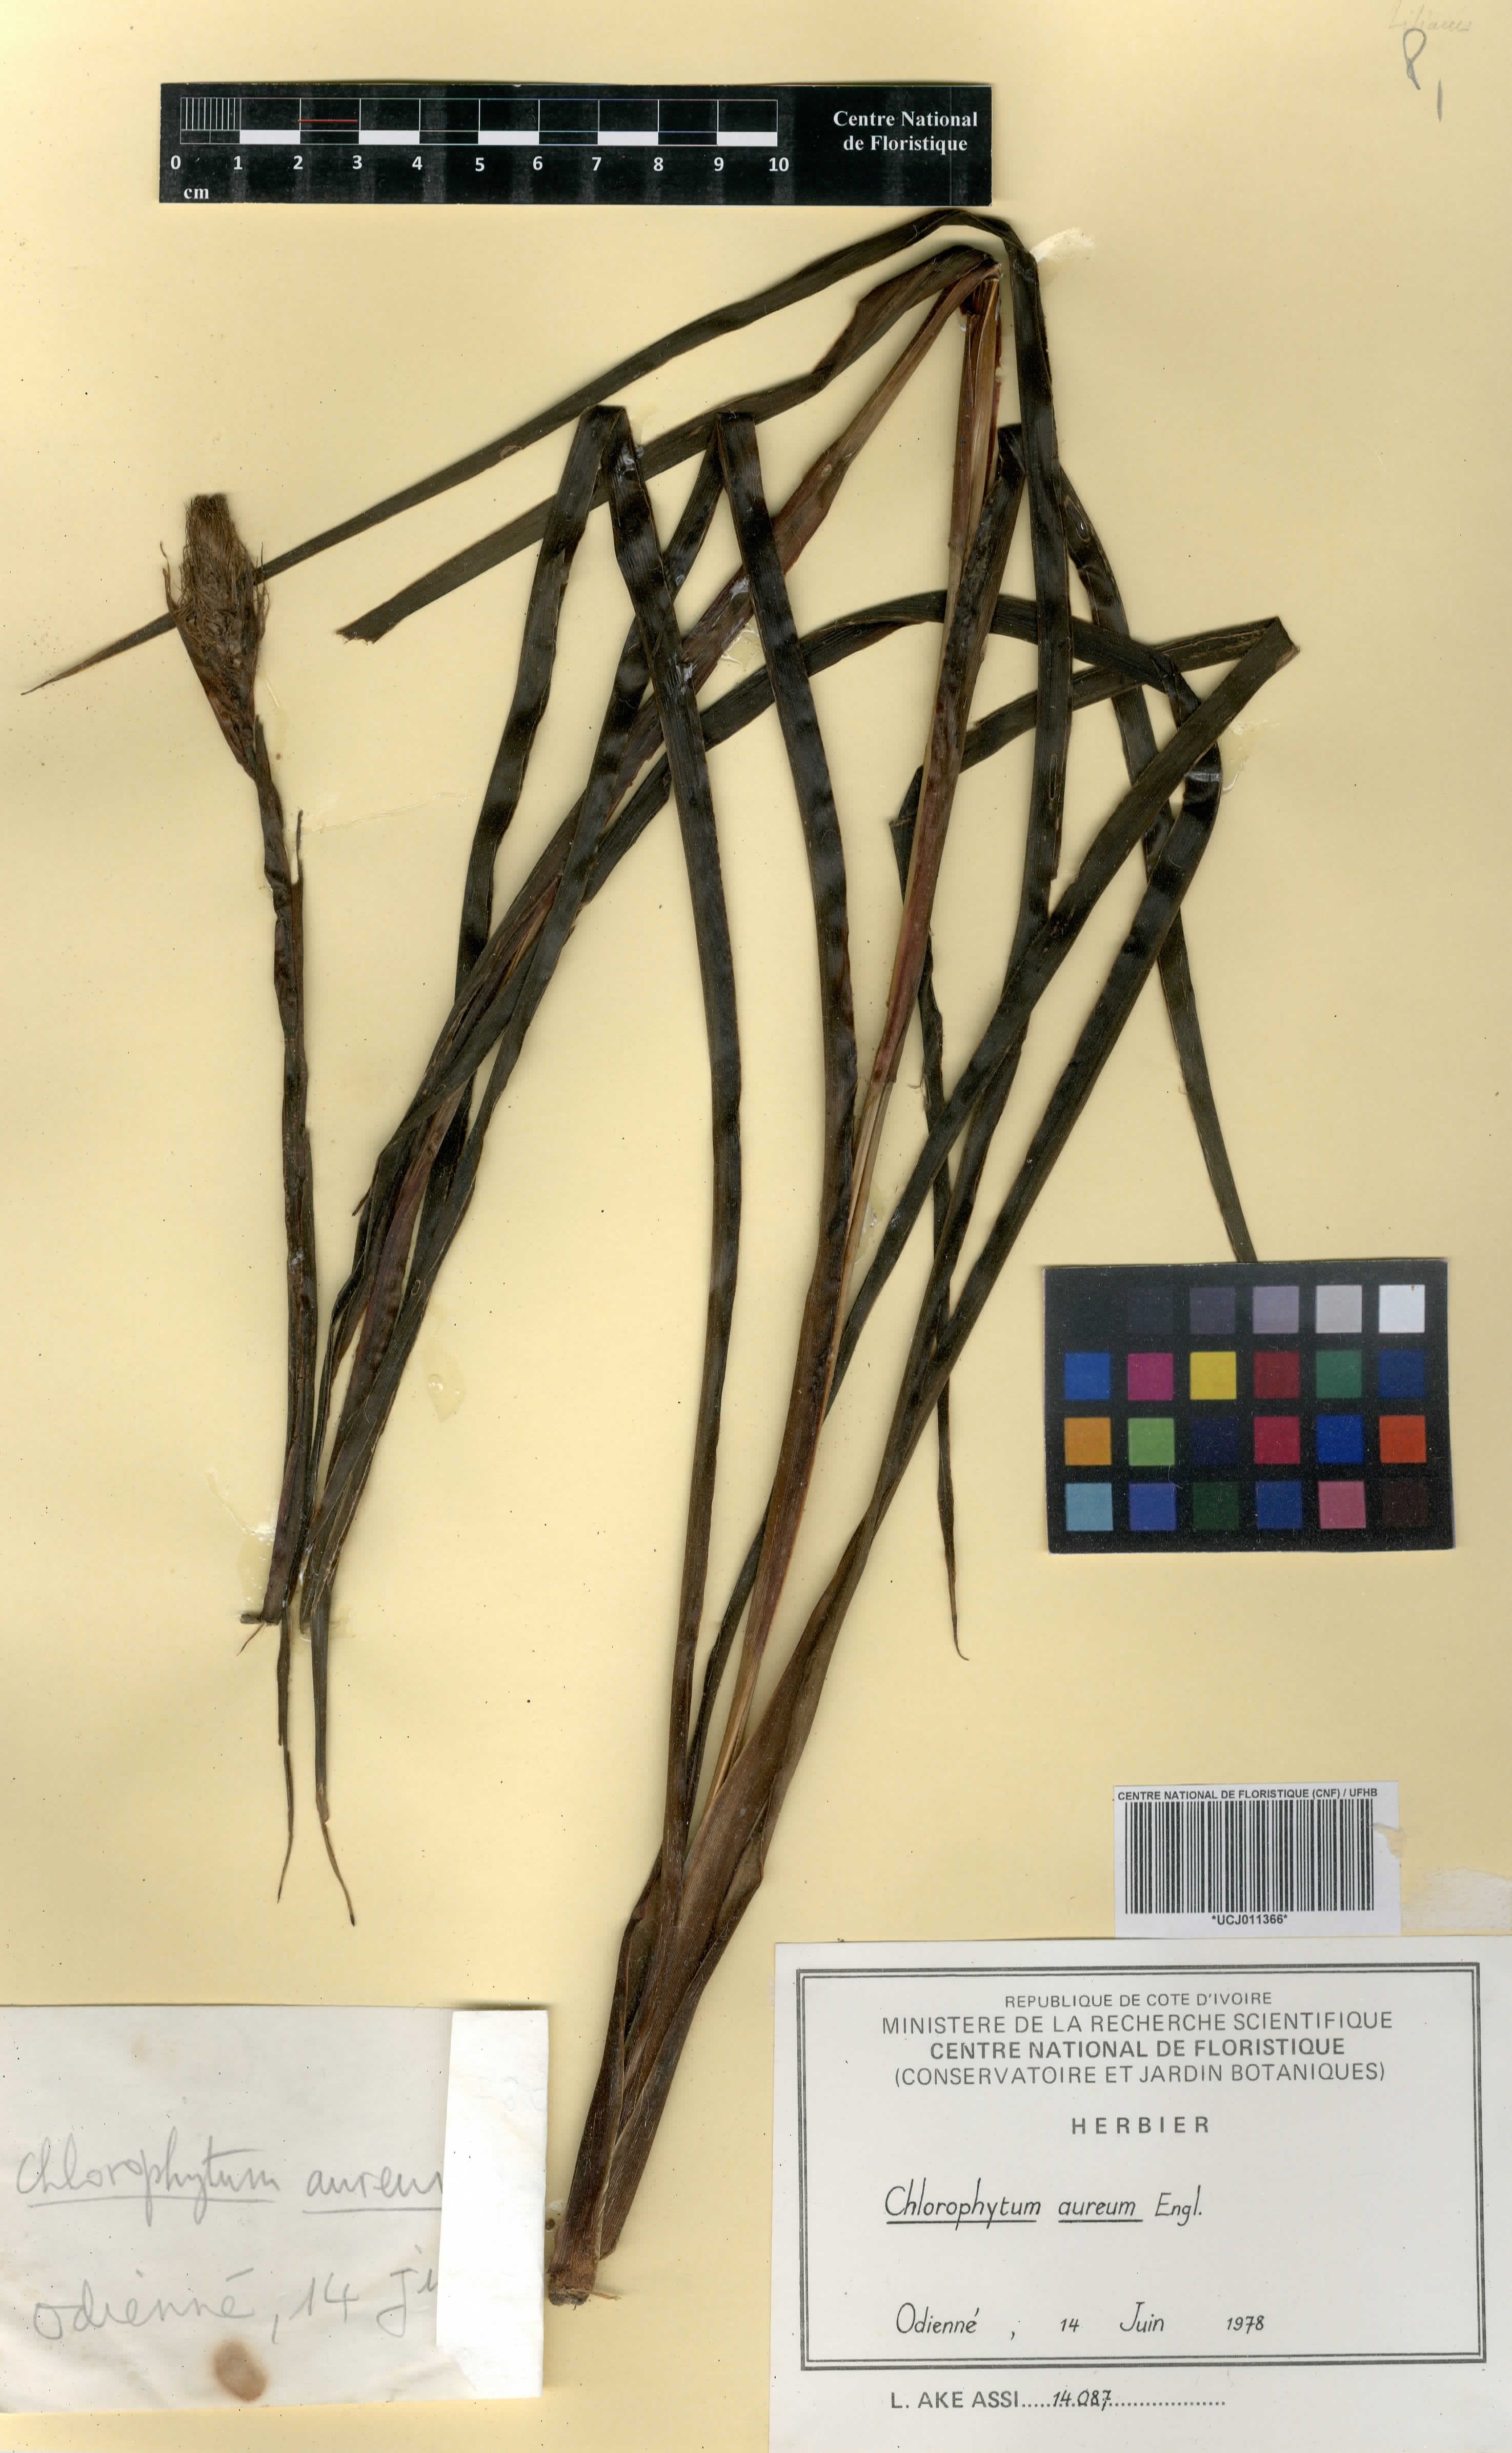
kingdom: Plantae
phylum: Tracheophyta
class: Liliopsida
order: Asparagales
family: Asparagaceae
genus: Chlorophytum
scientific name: Chlorophytum longifolium
